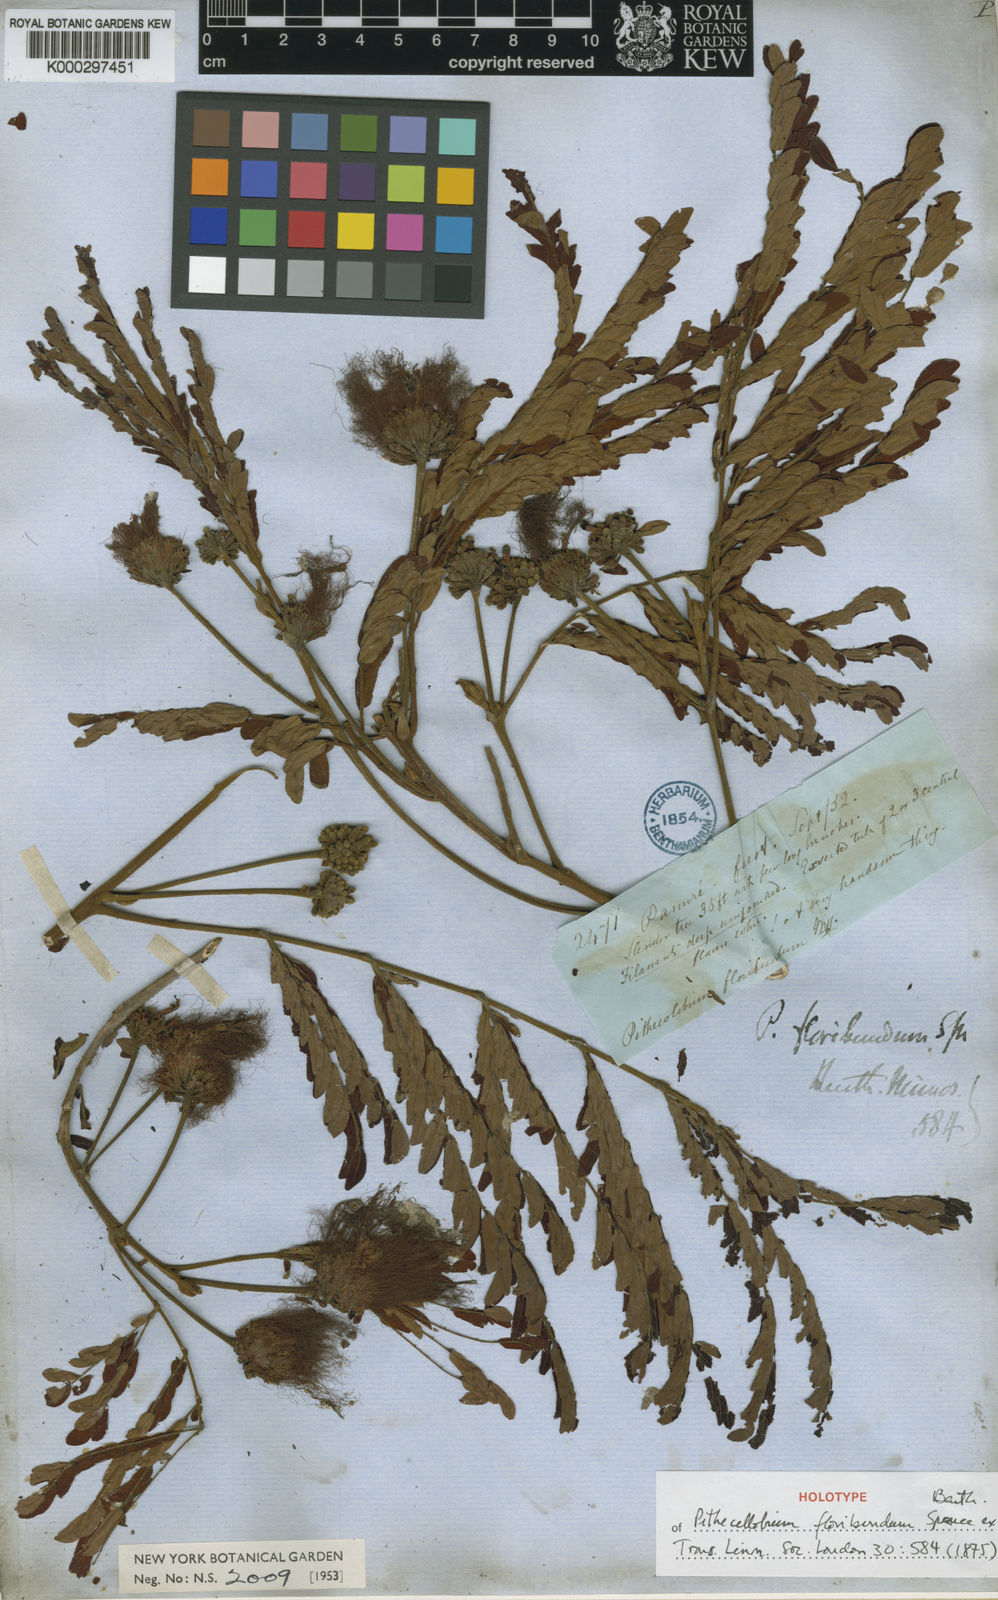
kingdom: Plantae
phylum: Tracheophyta
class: Magnoliopsida
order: Fabales
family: Fabaceae
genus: Jupunba
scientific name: Jupunba floribunda
